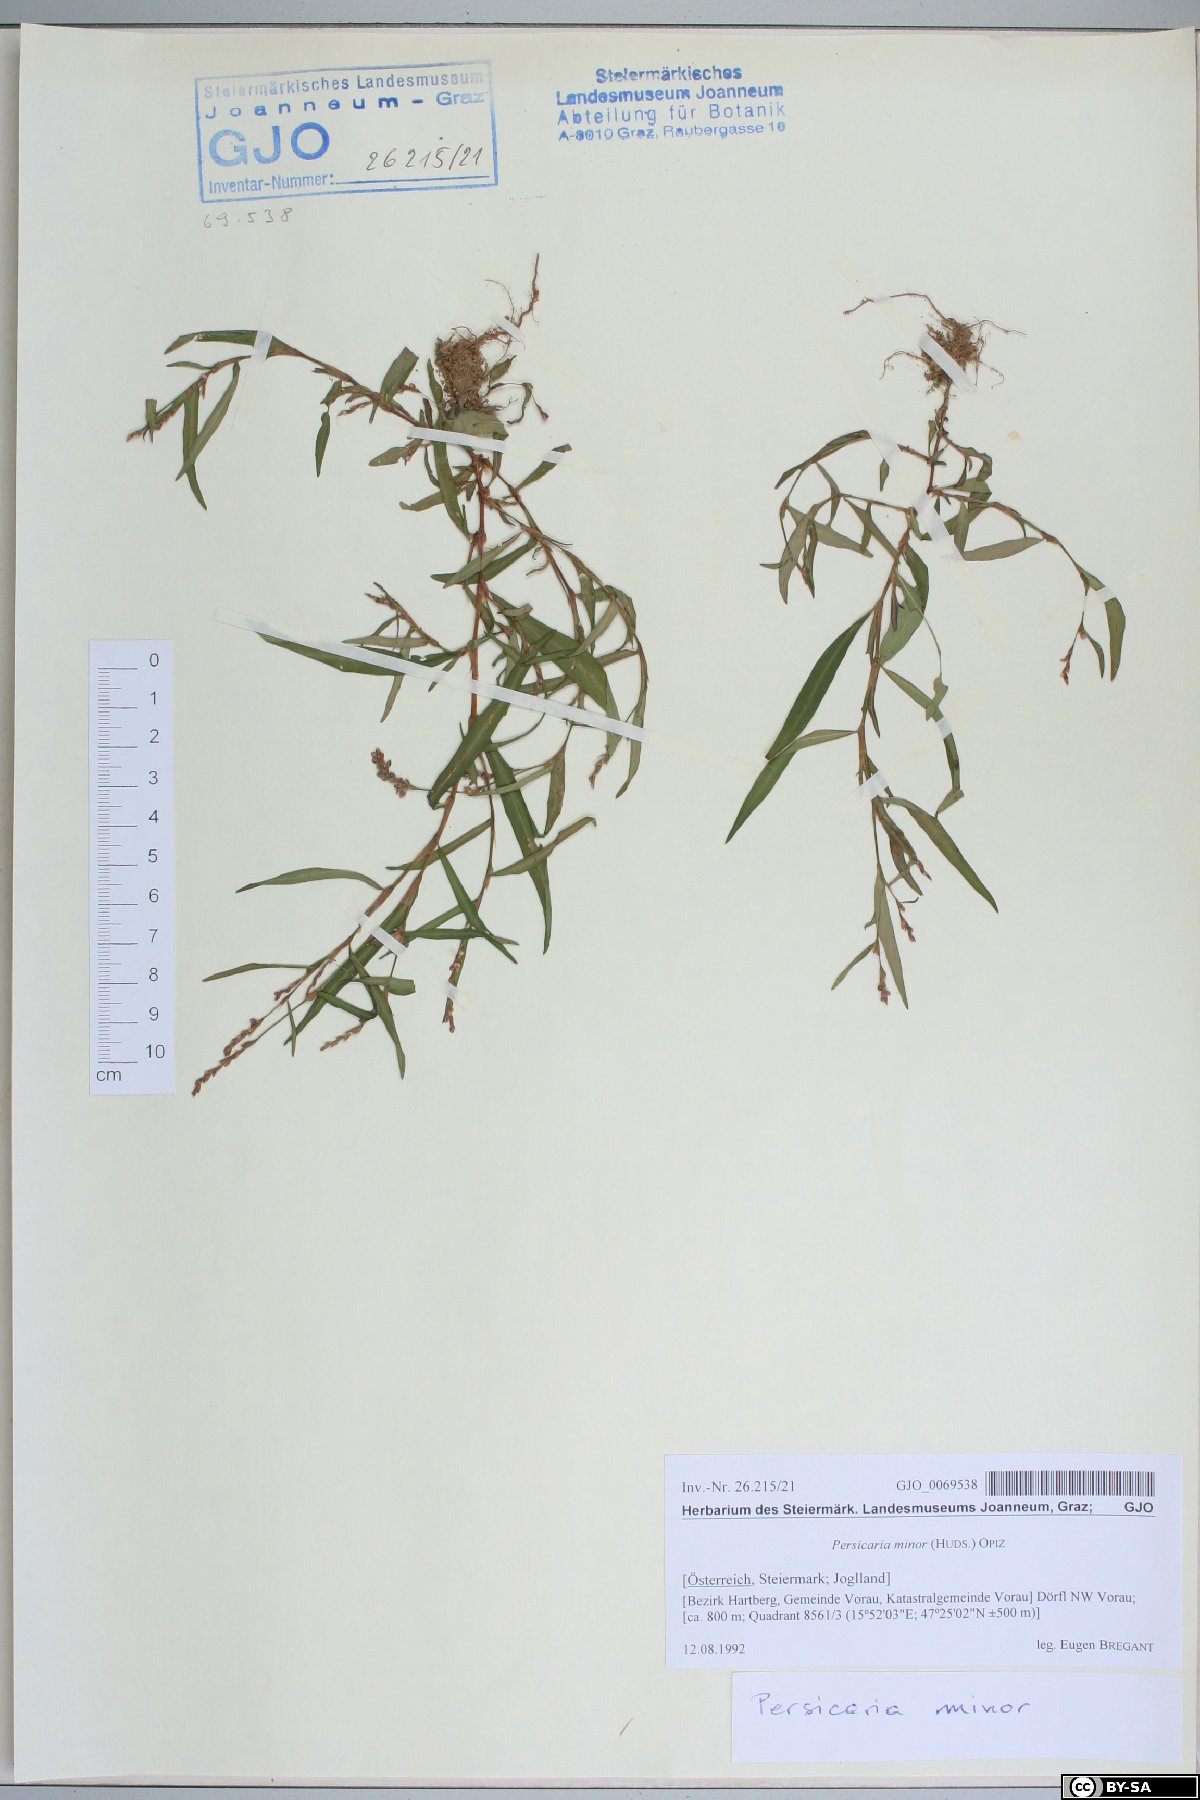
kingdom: Plantae
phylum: Tracheophyta
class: Magnoliopsida
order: Caryophyllales
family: Polygonaceae
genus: Persicaria
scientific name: Persicaria minor
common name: Small water-pepper
